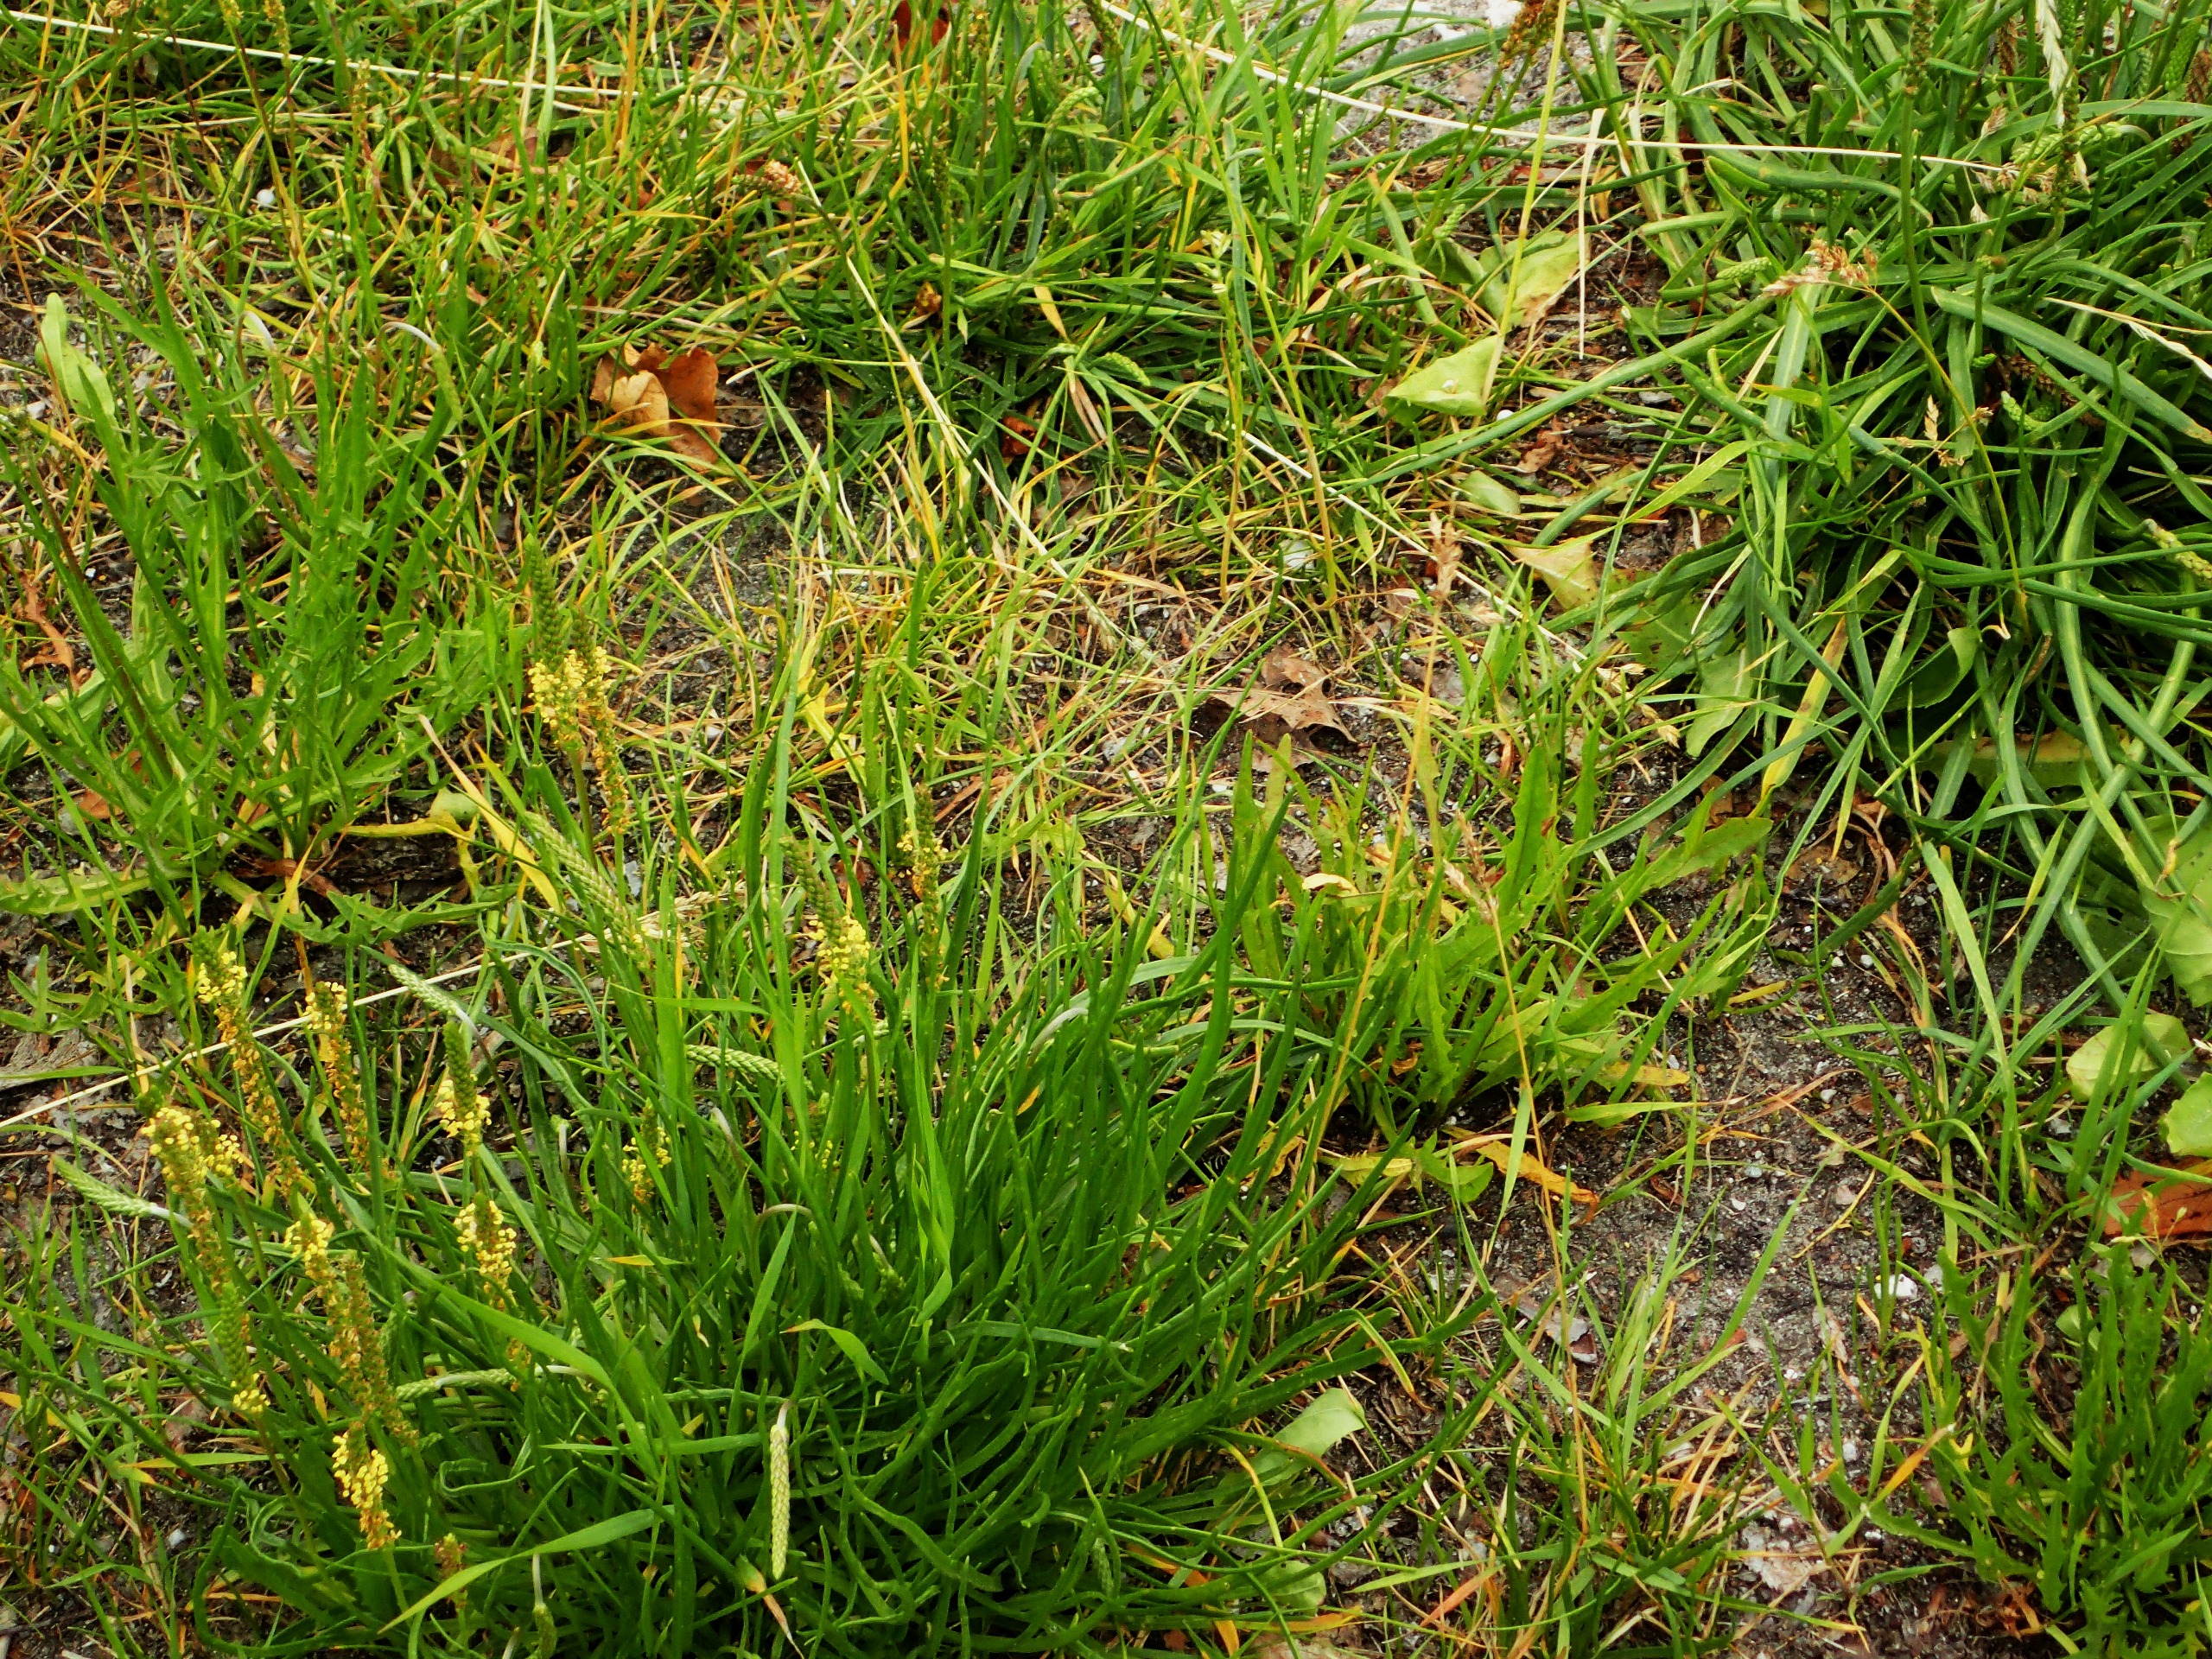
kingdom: Plantae
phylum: Tracheophyta
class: Magnoliopsida
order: Lamiales
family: Plantaginaceae
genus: Plantago
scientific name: Plantago maritima
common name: Strand-vejbred
